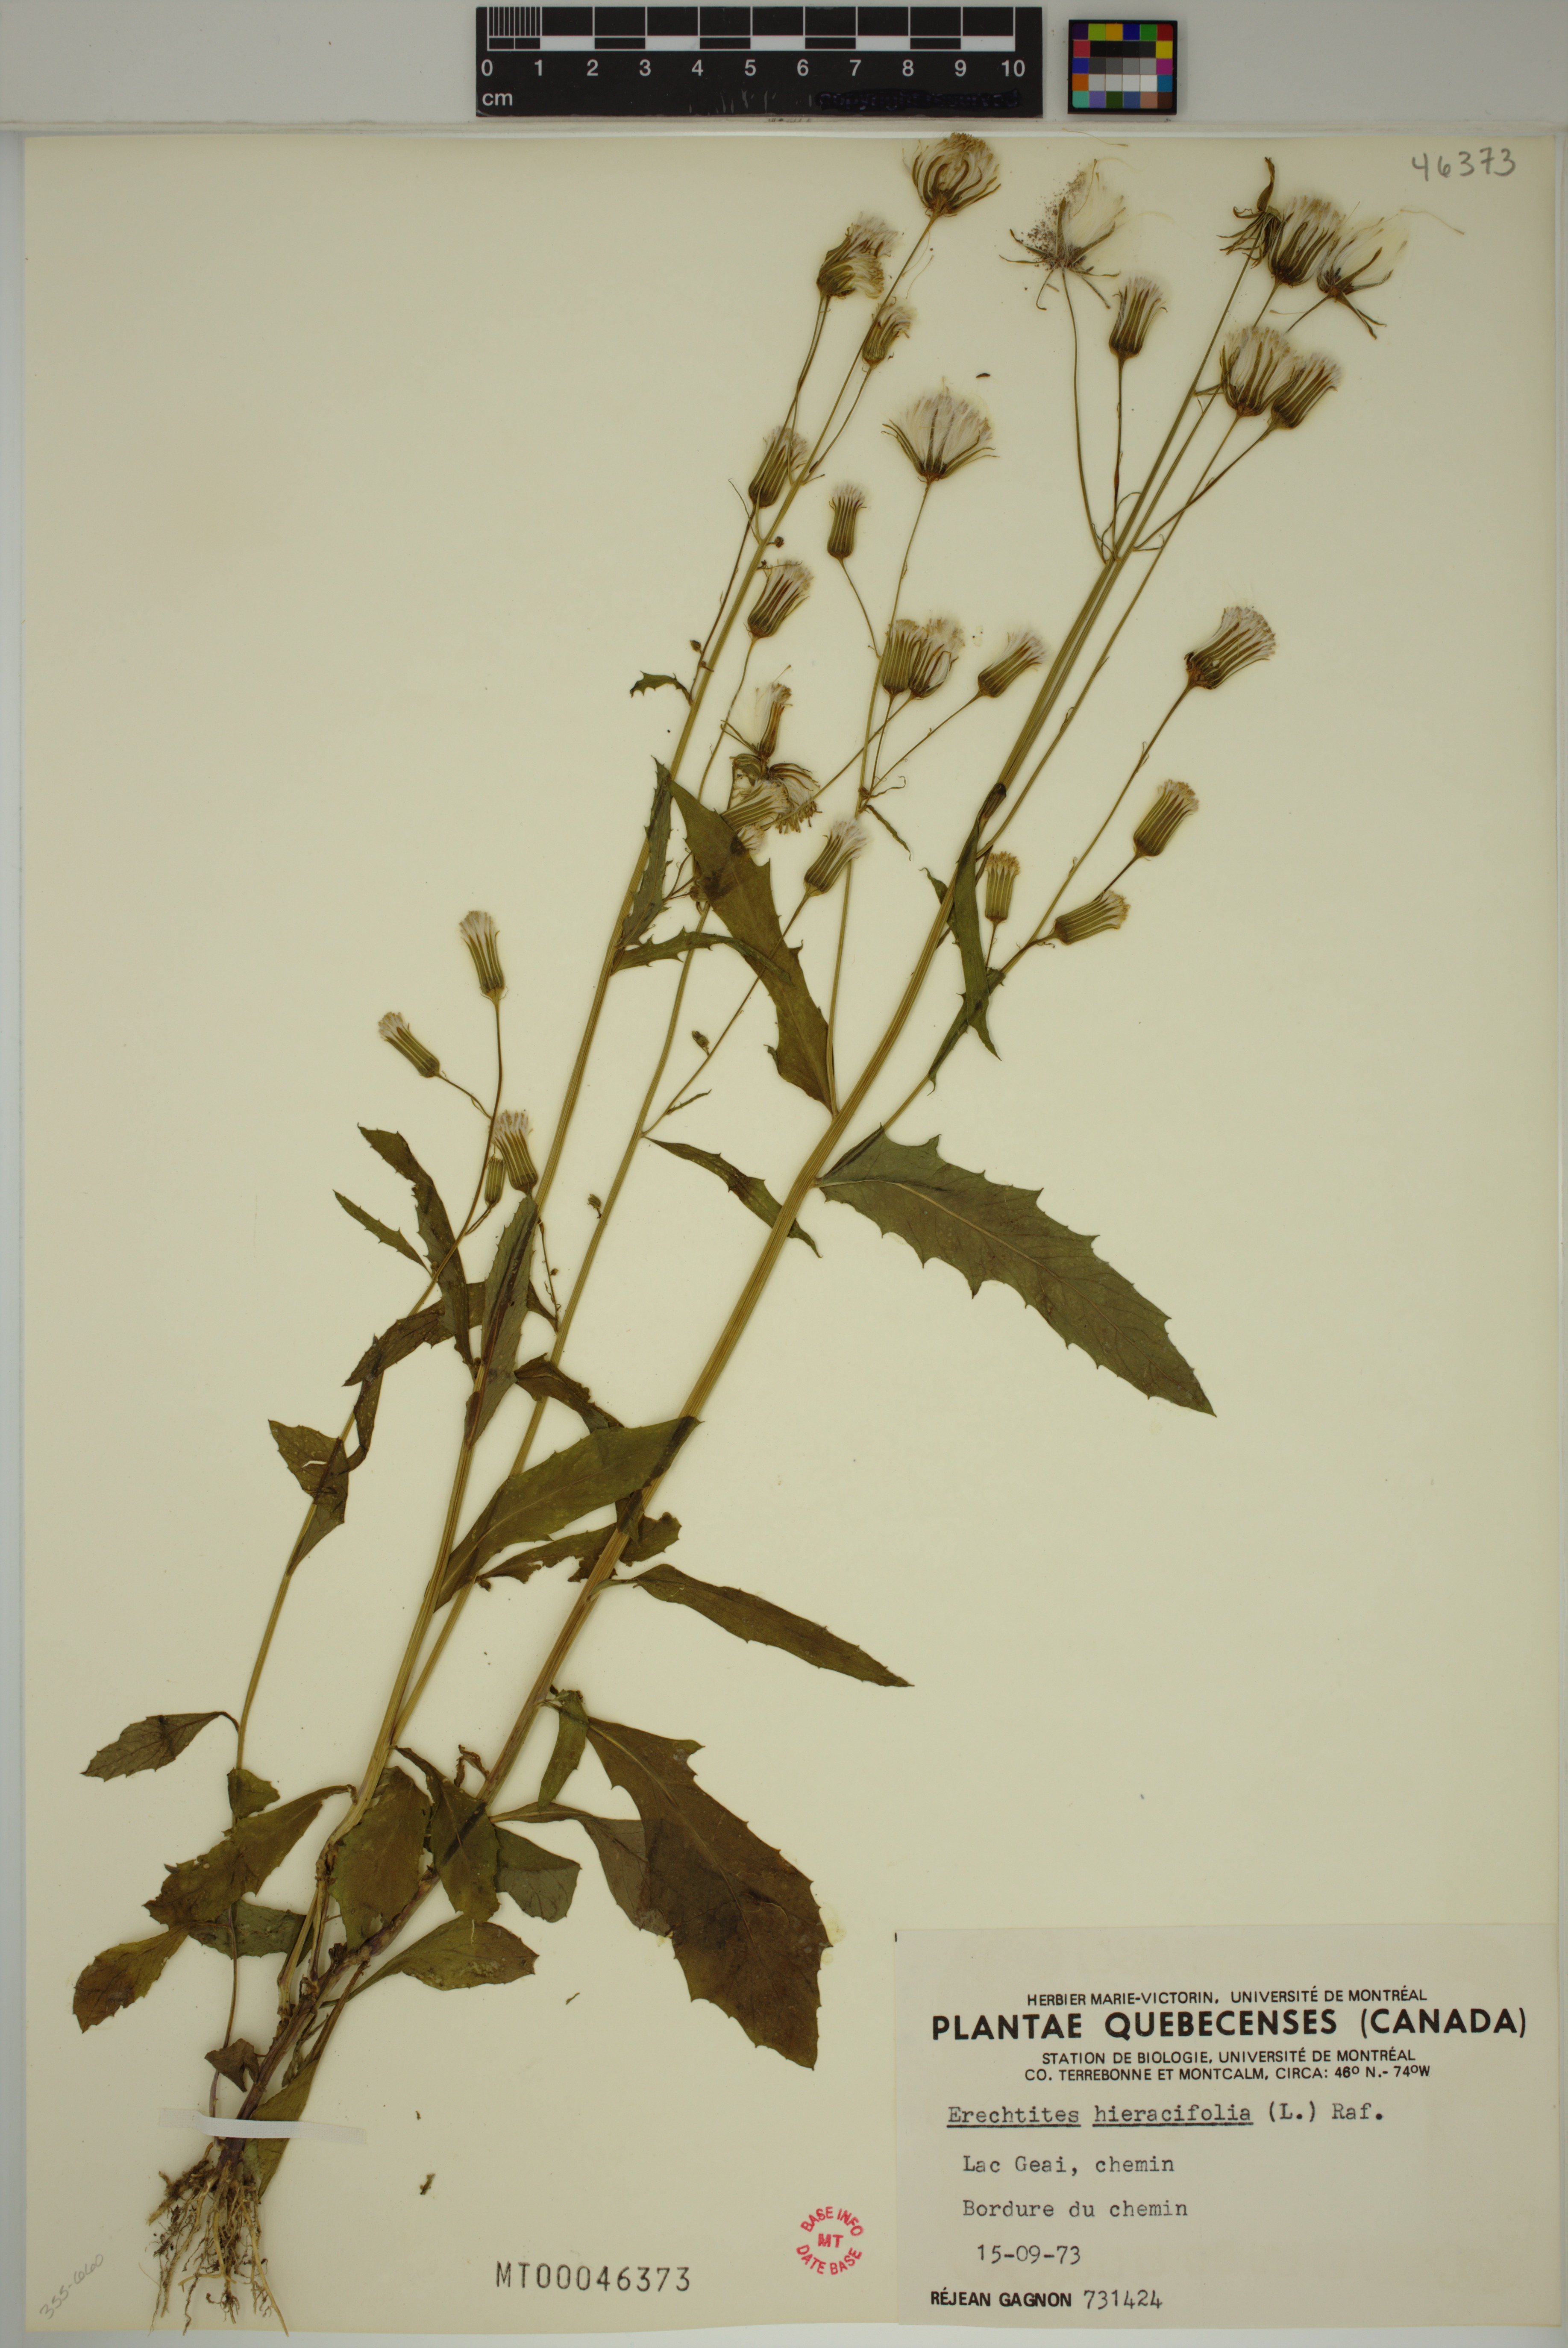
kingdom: Plantae
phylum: Tracheophyta
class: Magnoliopsida
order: Asterales
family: Asteraceae
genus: Erechtites
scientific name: Erechtites hieraciifolius
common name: American burnweed
